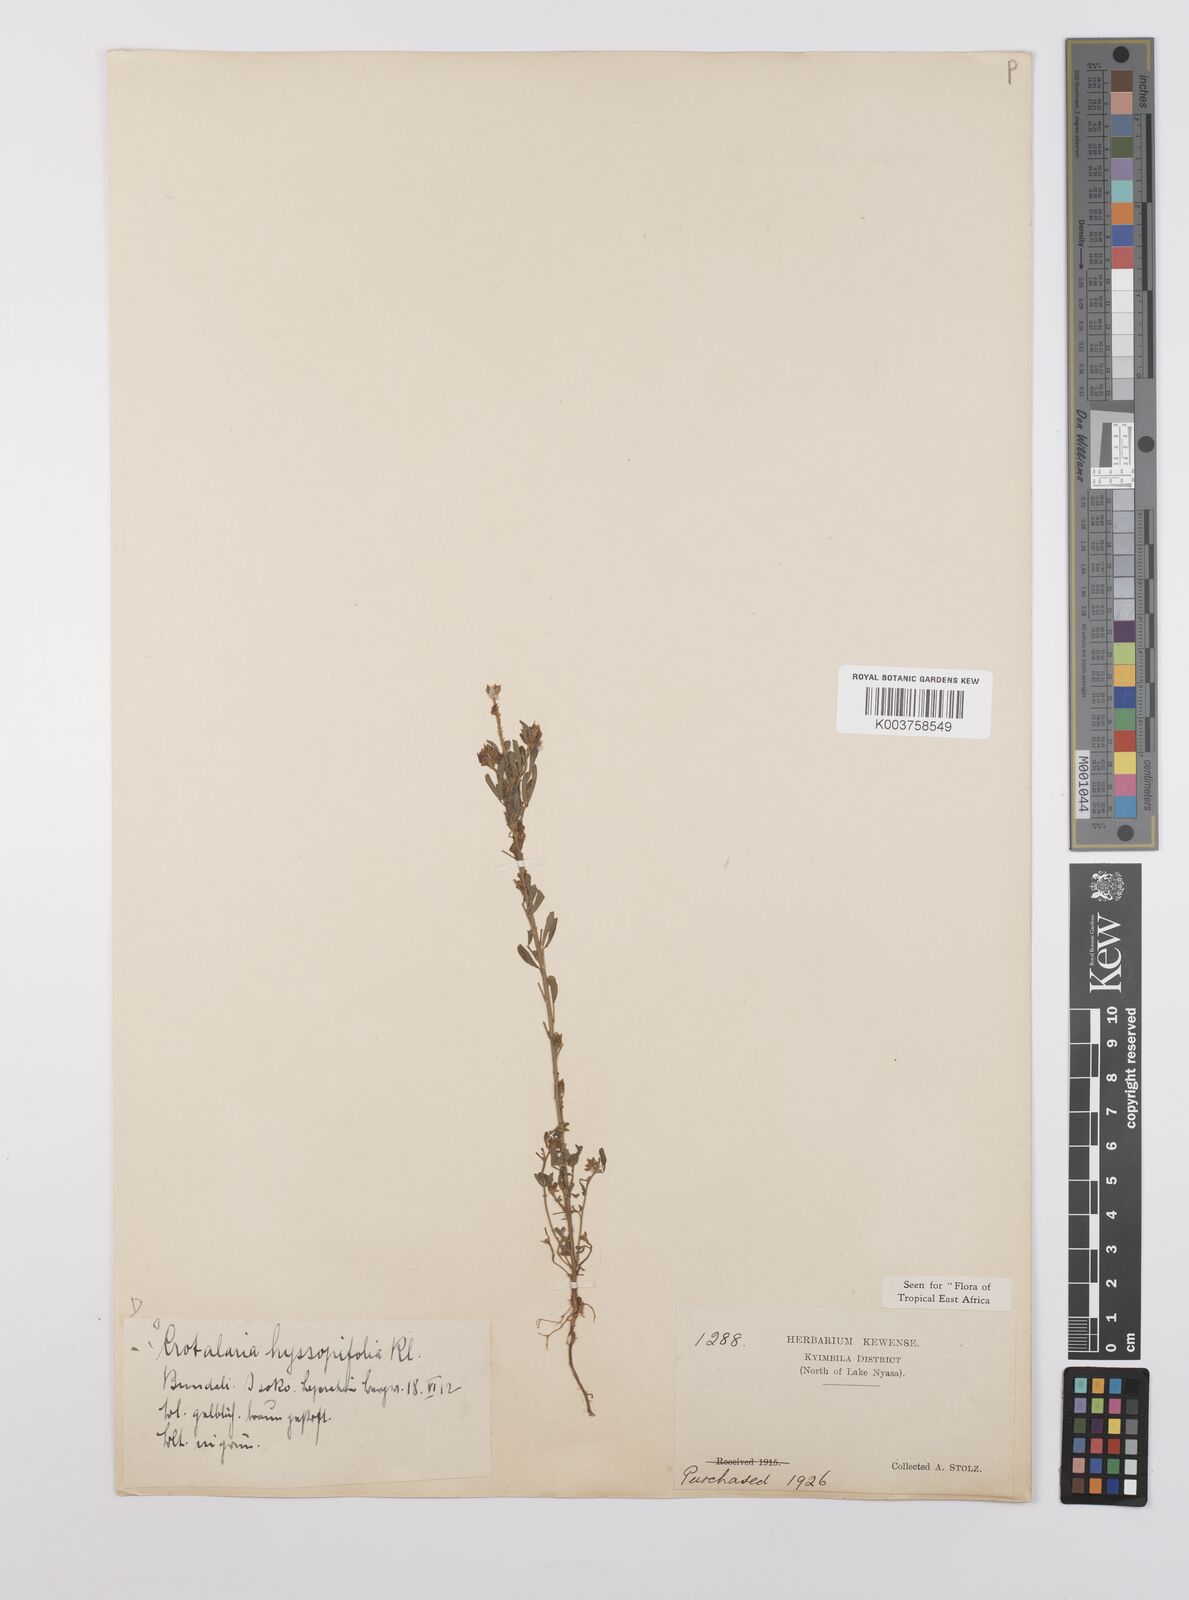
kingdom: Plantae
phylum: Tracheophyta
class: Magnoliopsida
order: Fabales
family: Fabaceae
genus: Crotalaria
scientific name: Crotalaria hyssopifolia
